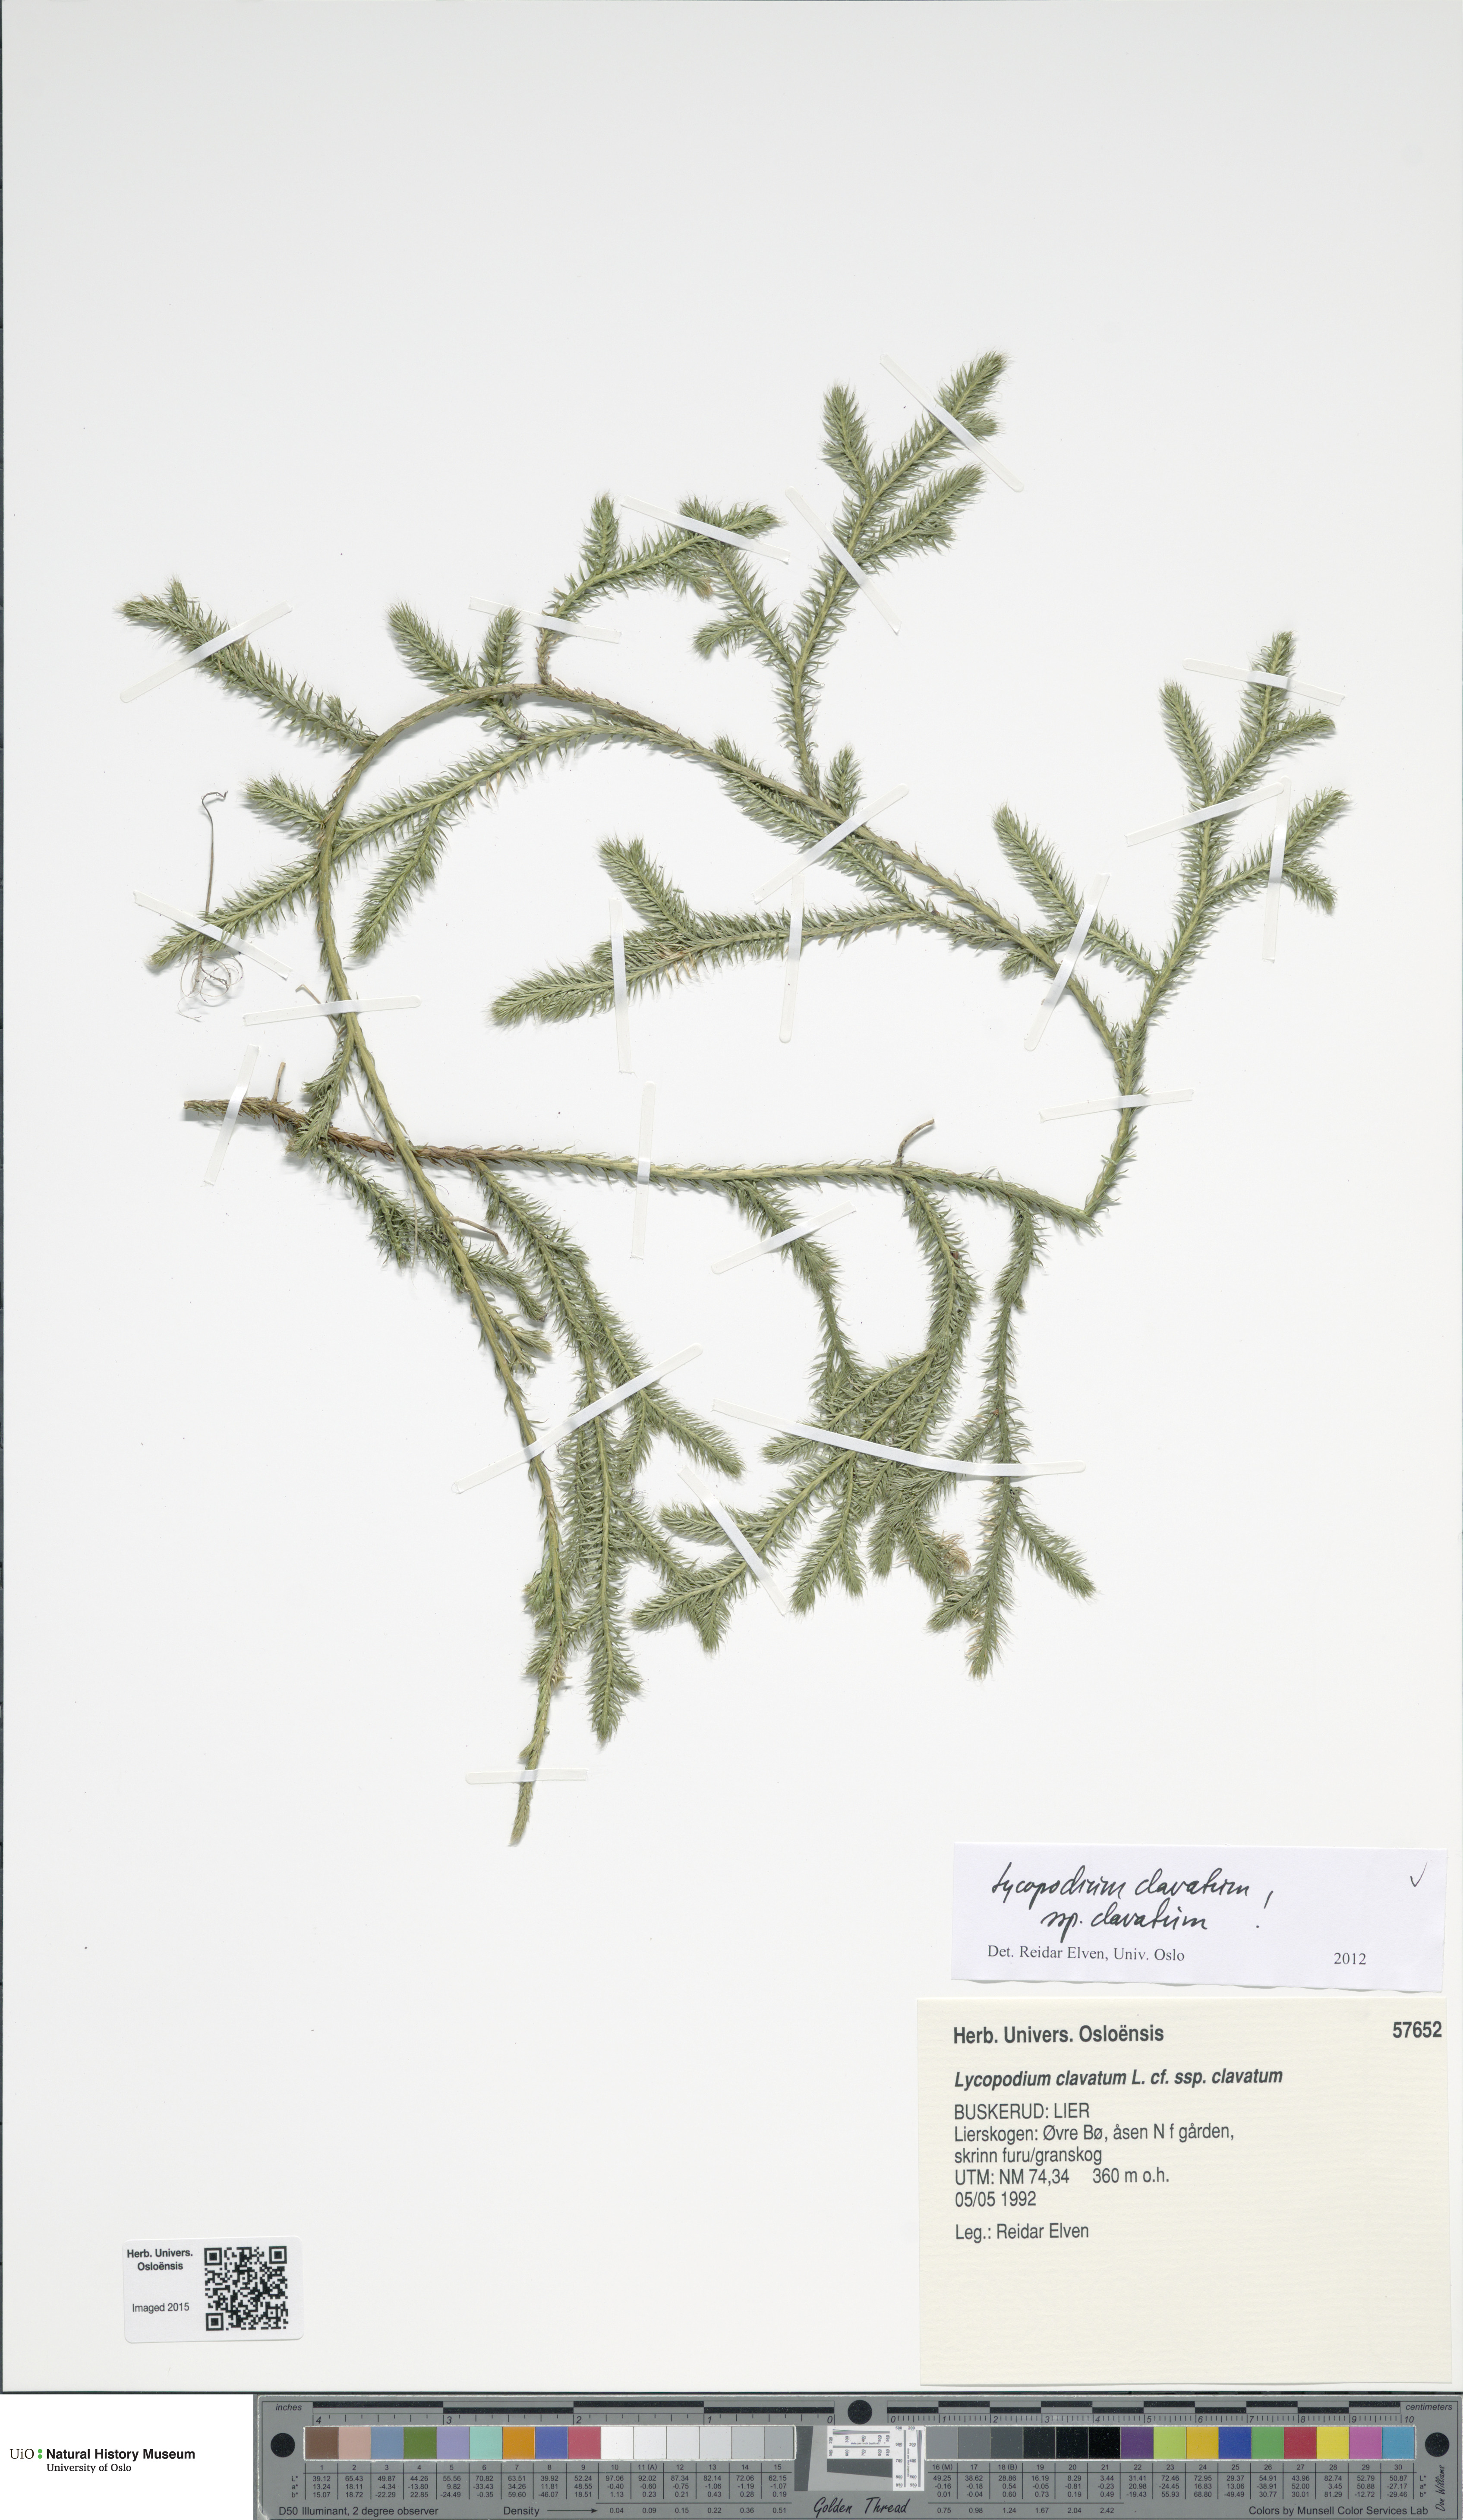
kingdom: Plantae
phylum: Tracheophyta
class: Lycopodiopsida
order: Lycopodiales
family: Lycopodiaceae
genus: Lycopodium
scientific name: Lycopodium clavatum
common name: Stag's-horn clubmoss
